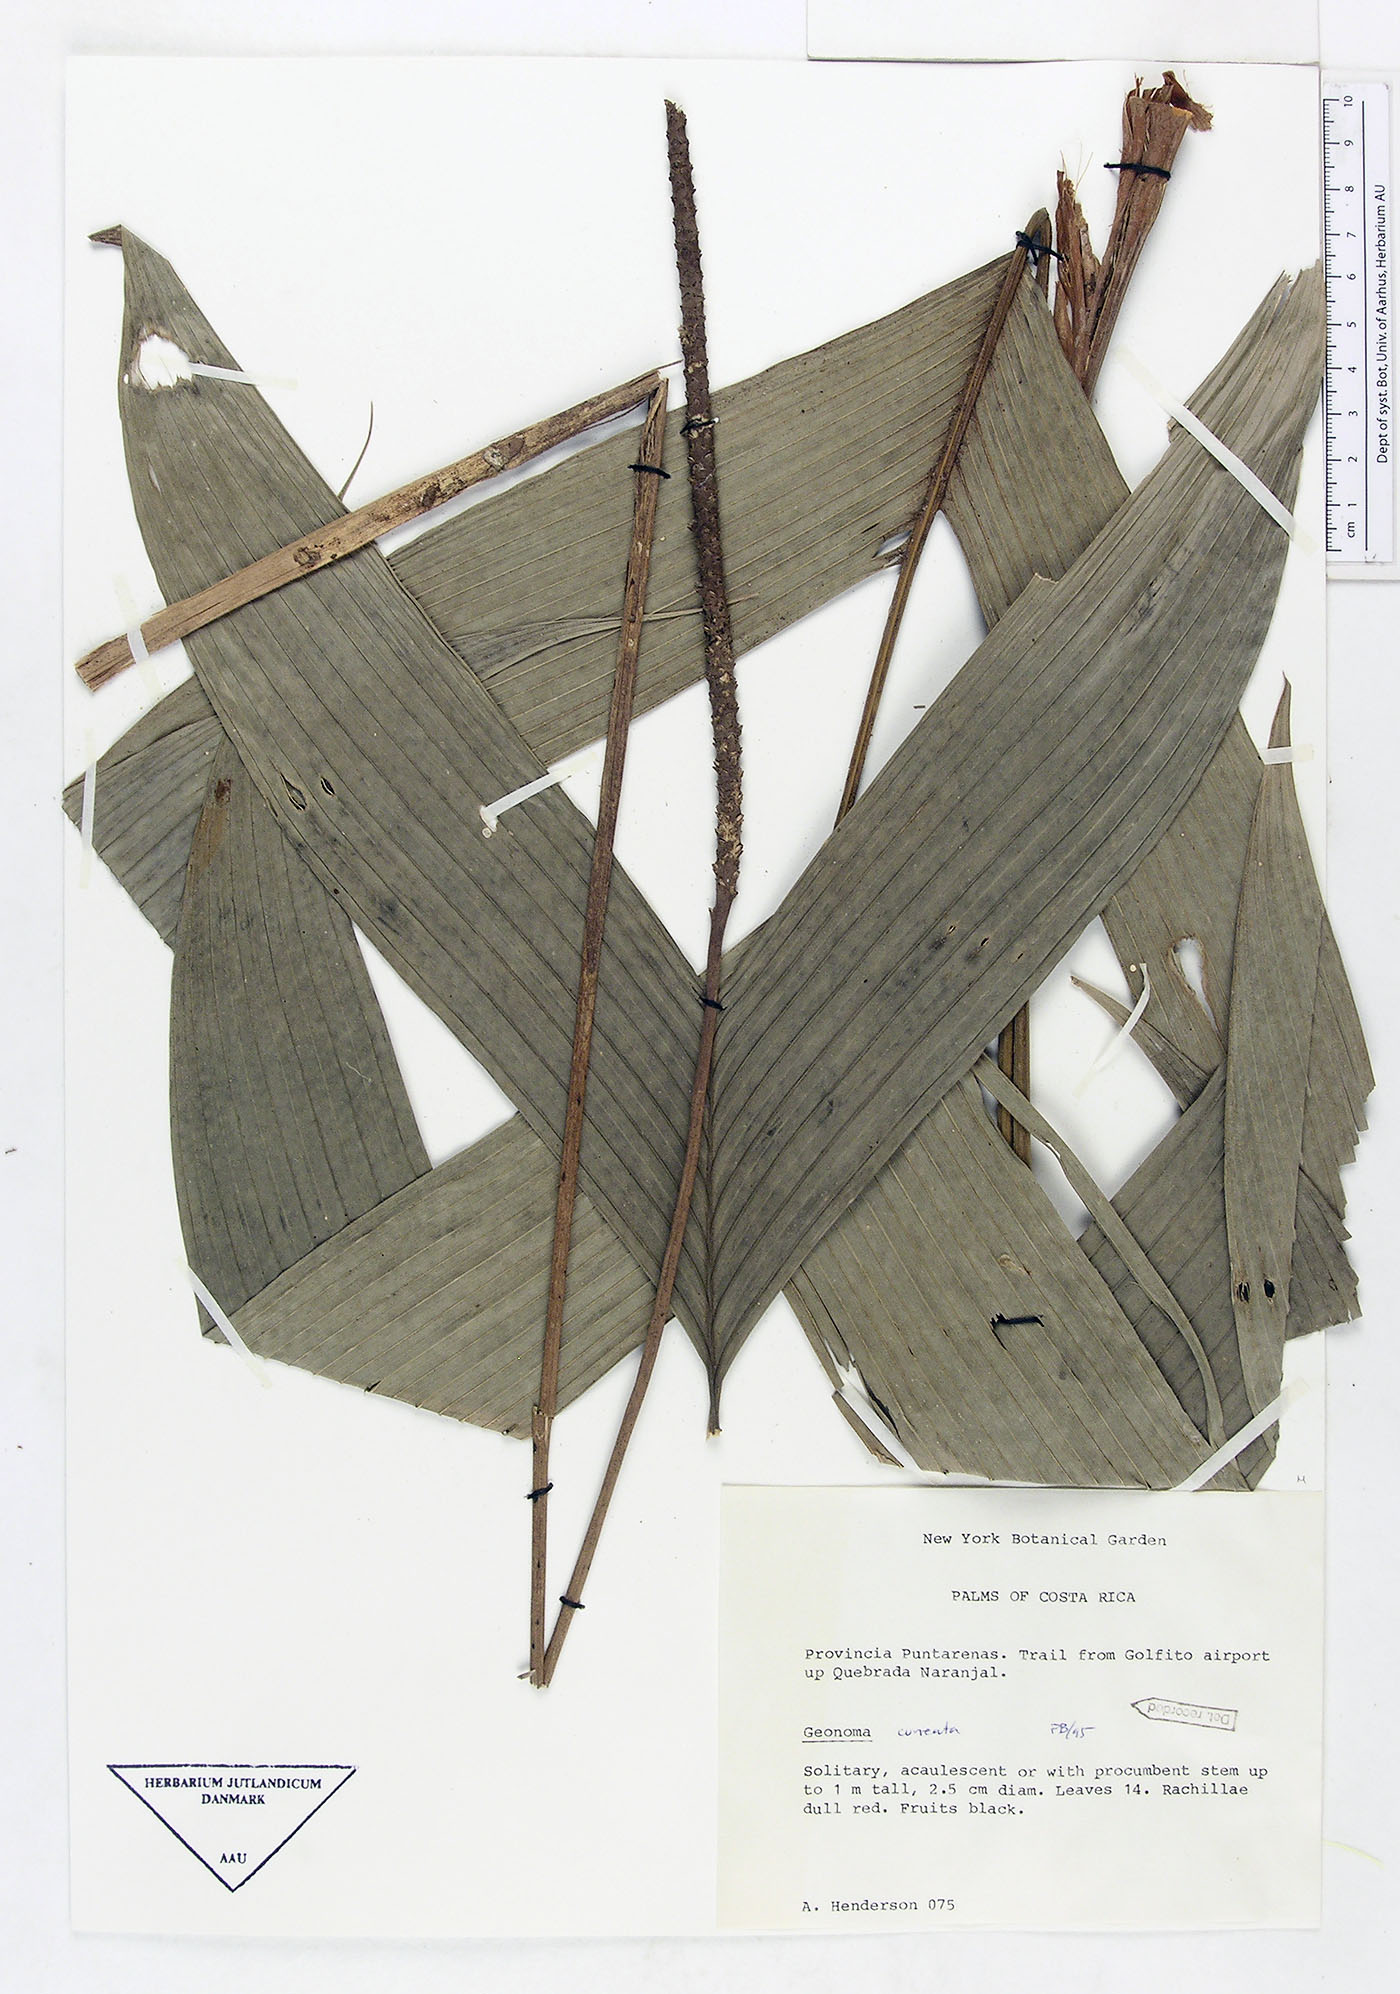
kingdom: Plantae
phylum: Tracheophyta
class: Liliopsida
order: Arecales
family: Arecaceae
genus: Geonoma
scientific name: Geonoma cuneata
